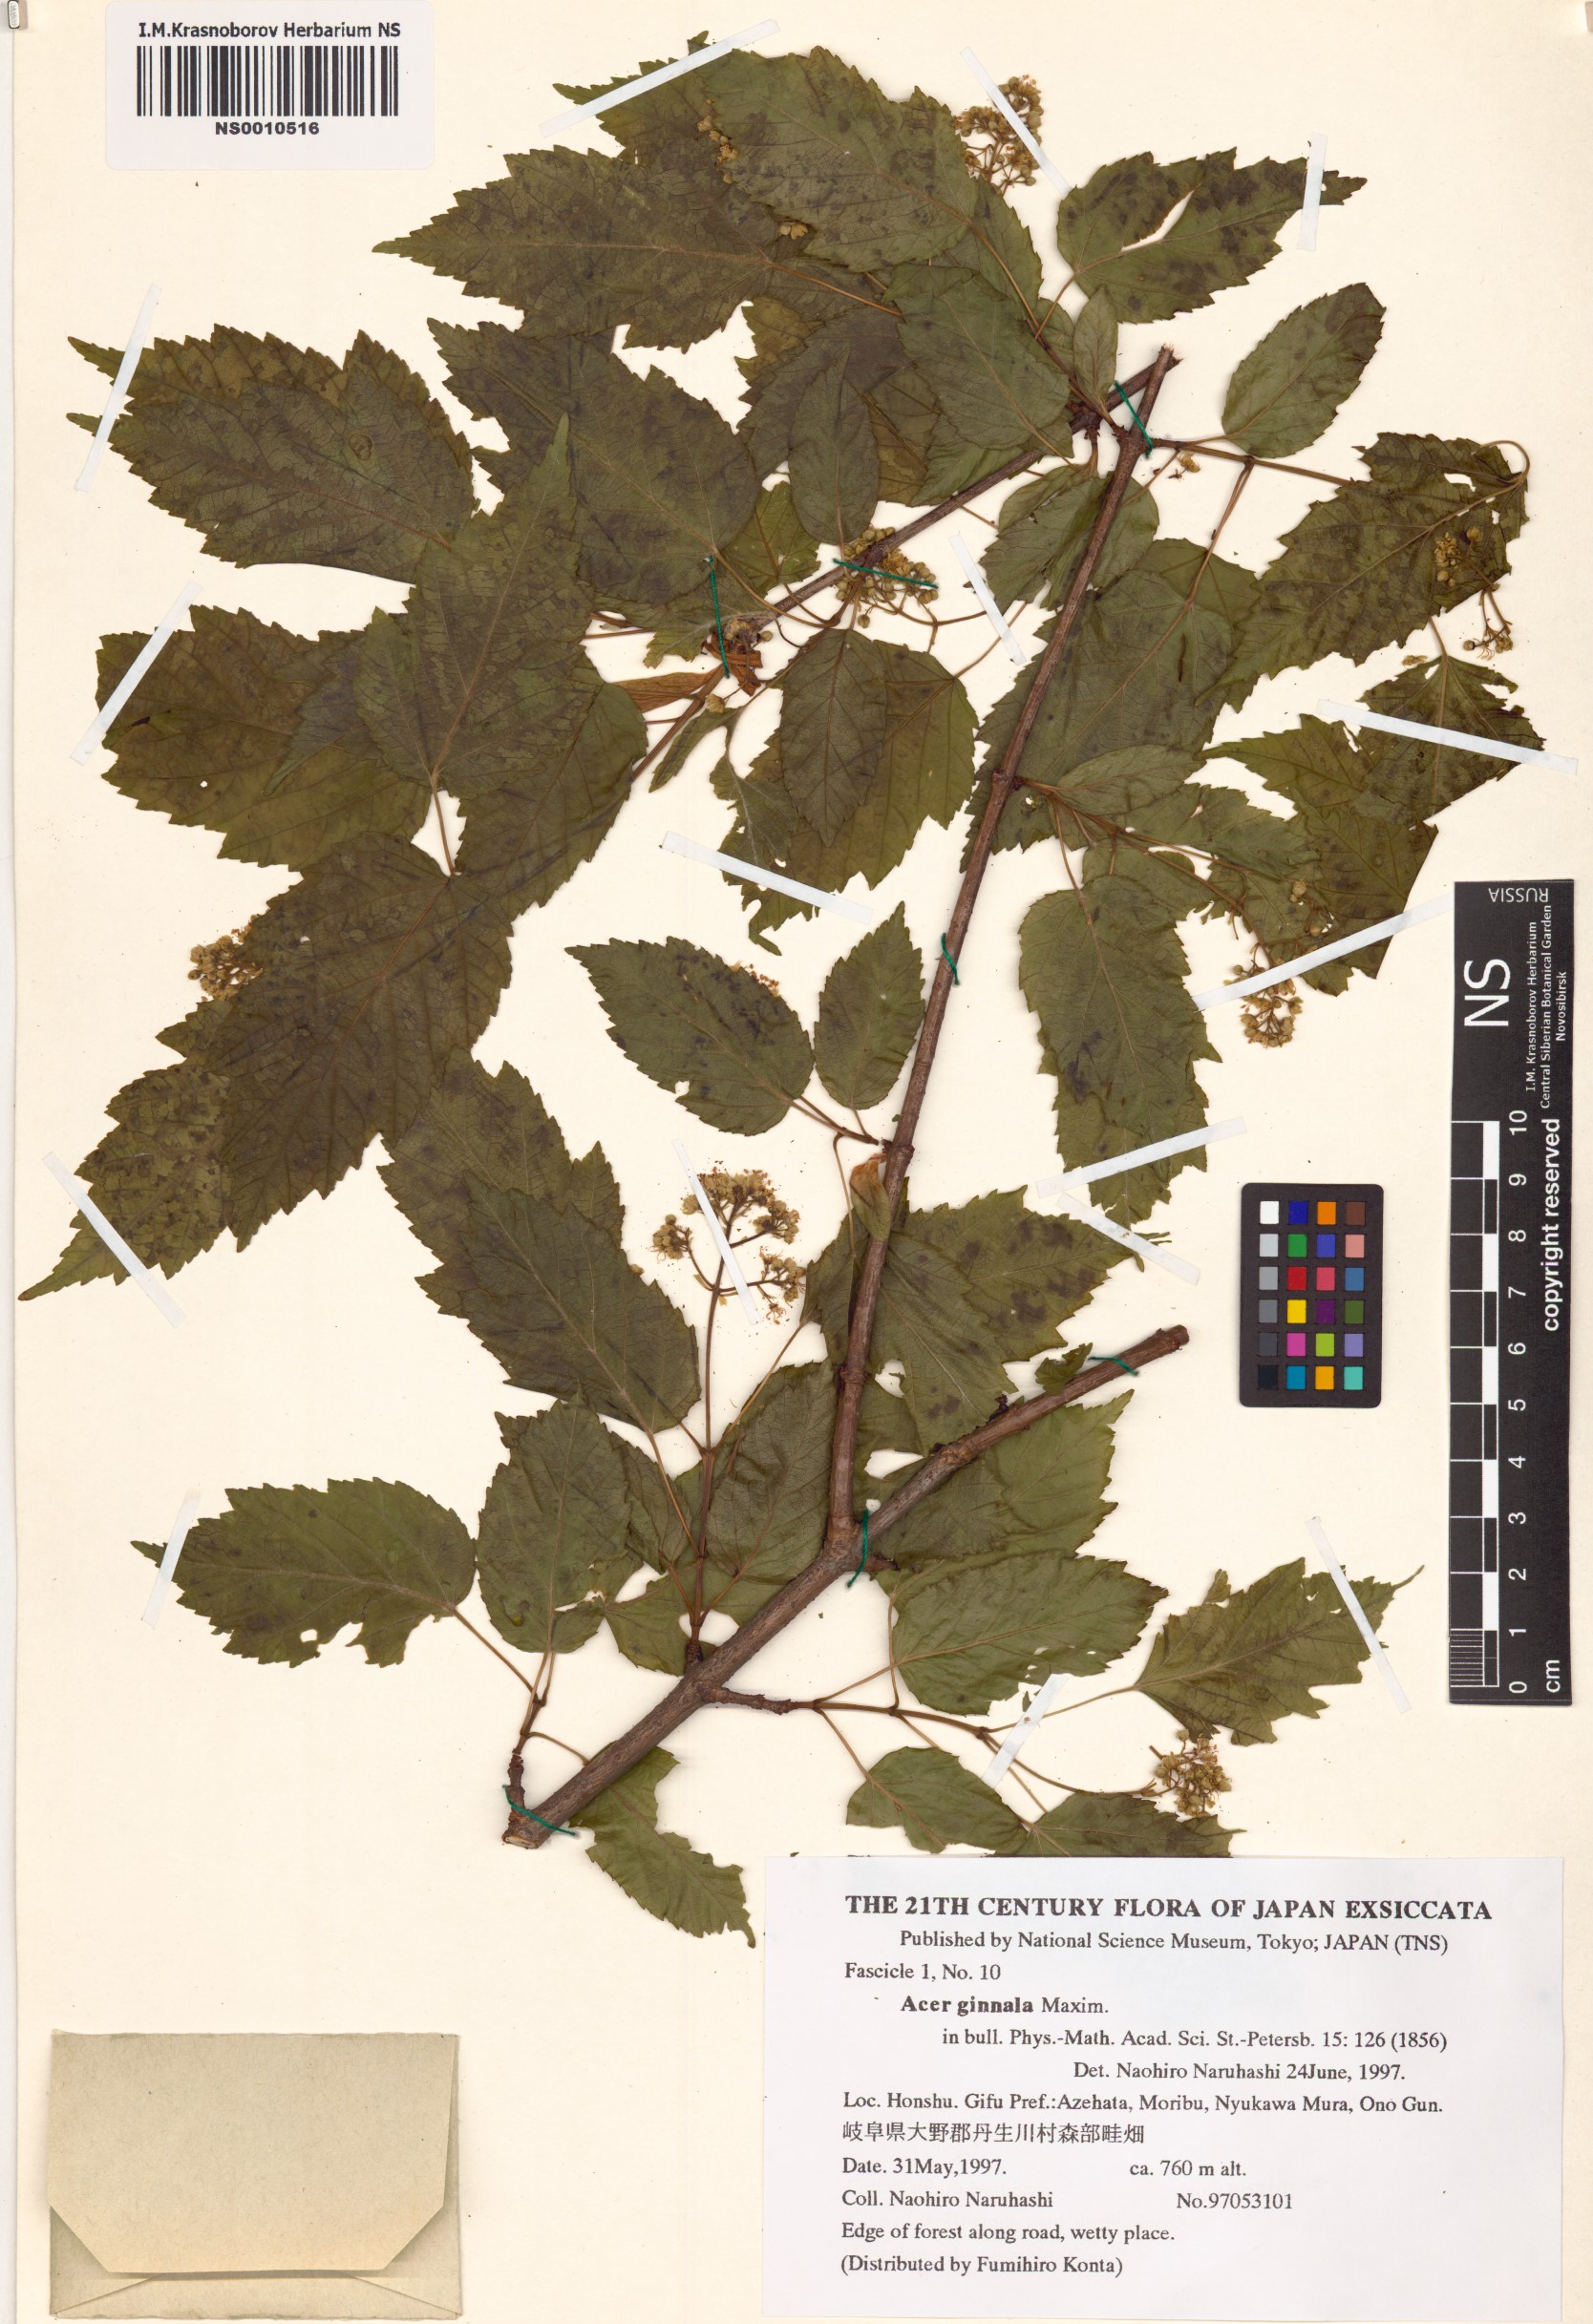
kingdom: Plantae
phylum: Tracheophyta
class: Magnoliopsida
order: Sapindales
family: Sapindaceae
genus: Acer
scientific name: Acer tataricum
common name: Tartar maple
